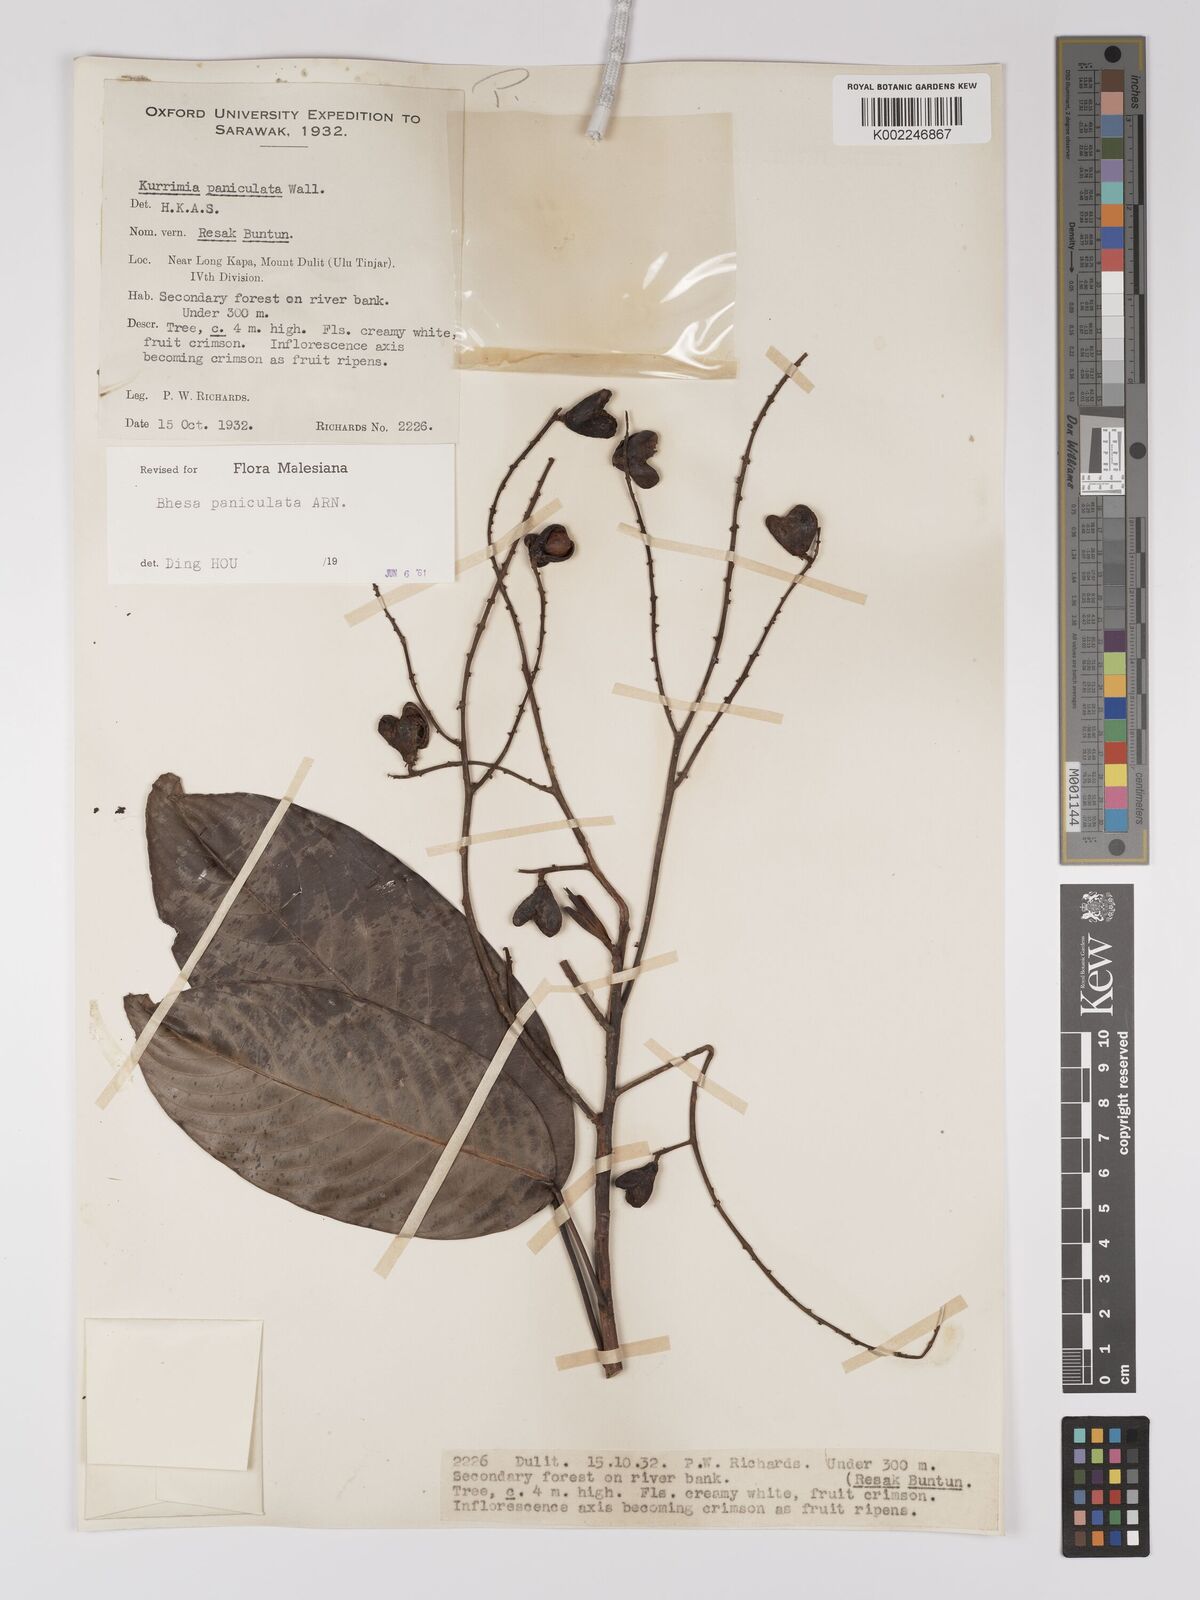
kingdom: Plantae
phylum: Tracheophyta
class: Magnoliopsida
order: Malpighiales
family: Centroplacaceae
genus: Bhesa
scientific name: Bhesa paniculata
